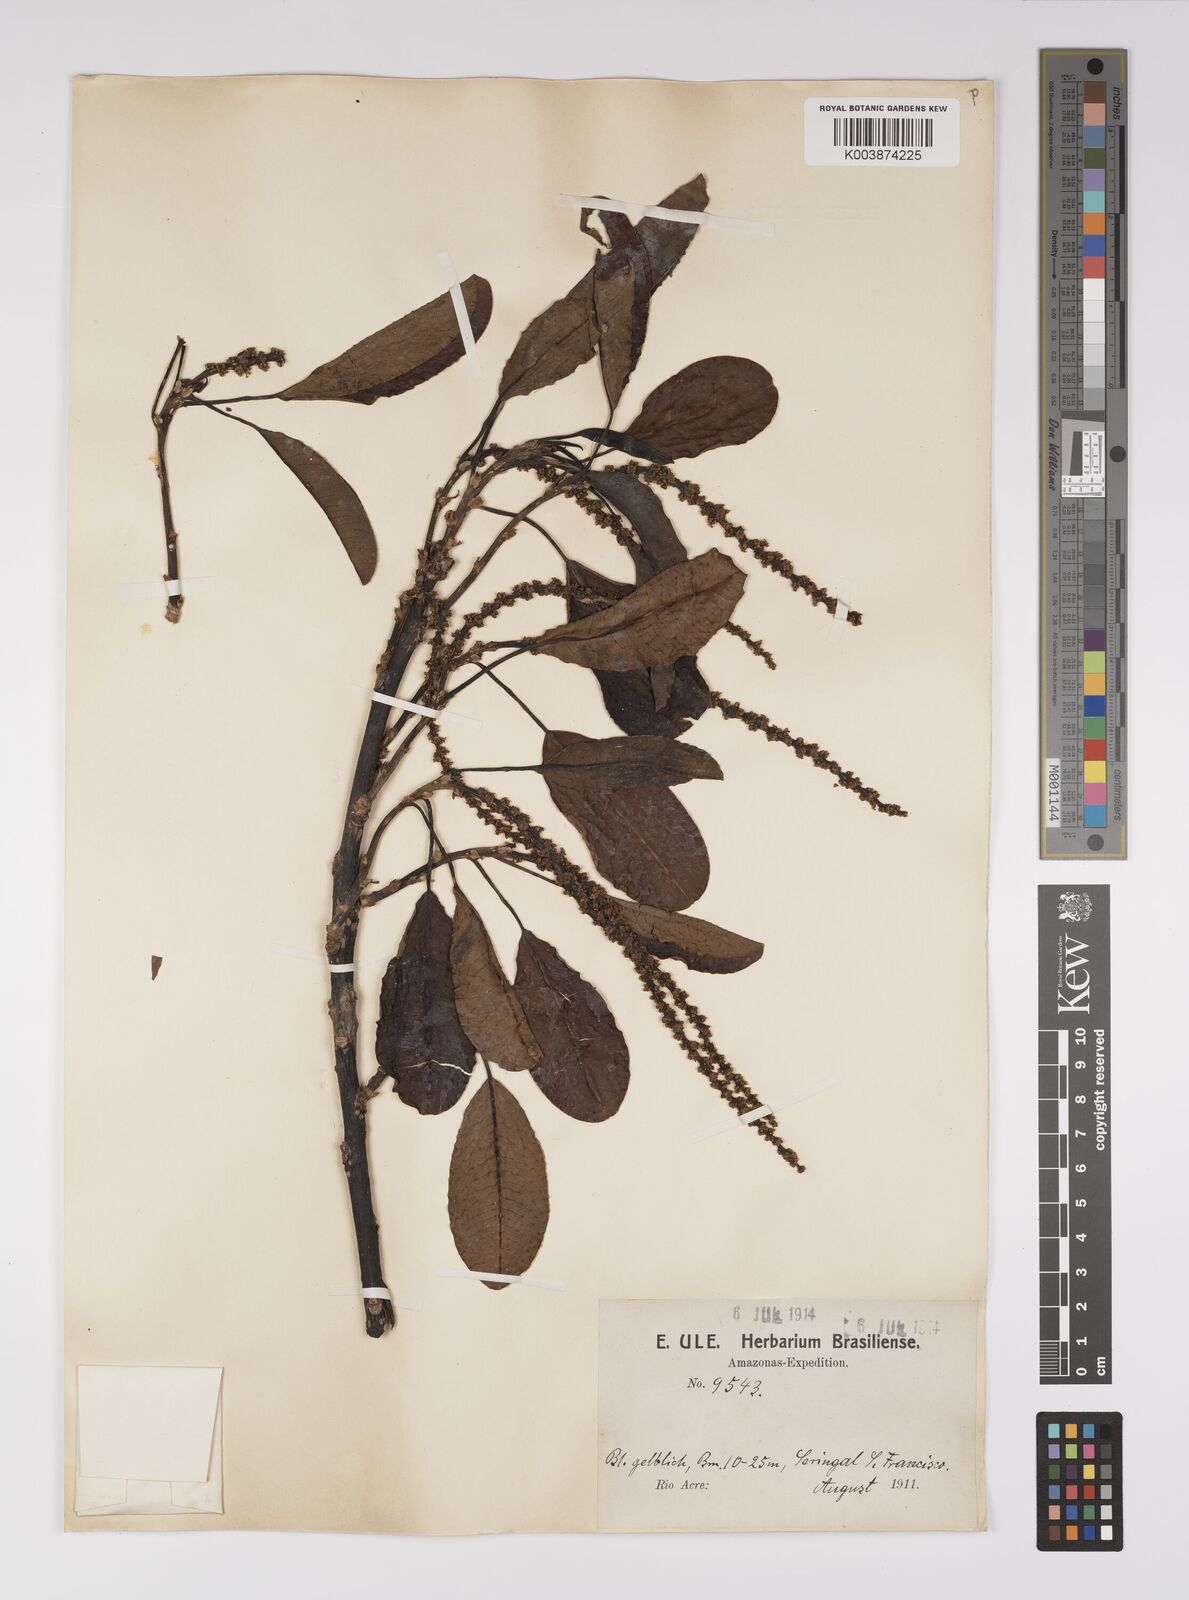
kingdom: Plantae
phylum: Tracheophyta
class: Magnoliopsida
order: Malpighiales
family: Euphorbiaceae
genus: Sapium
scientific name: Sapium
